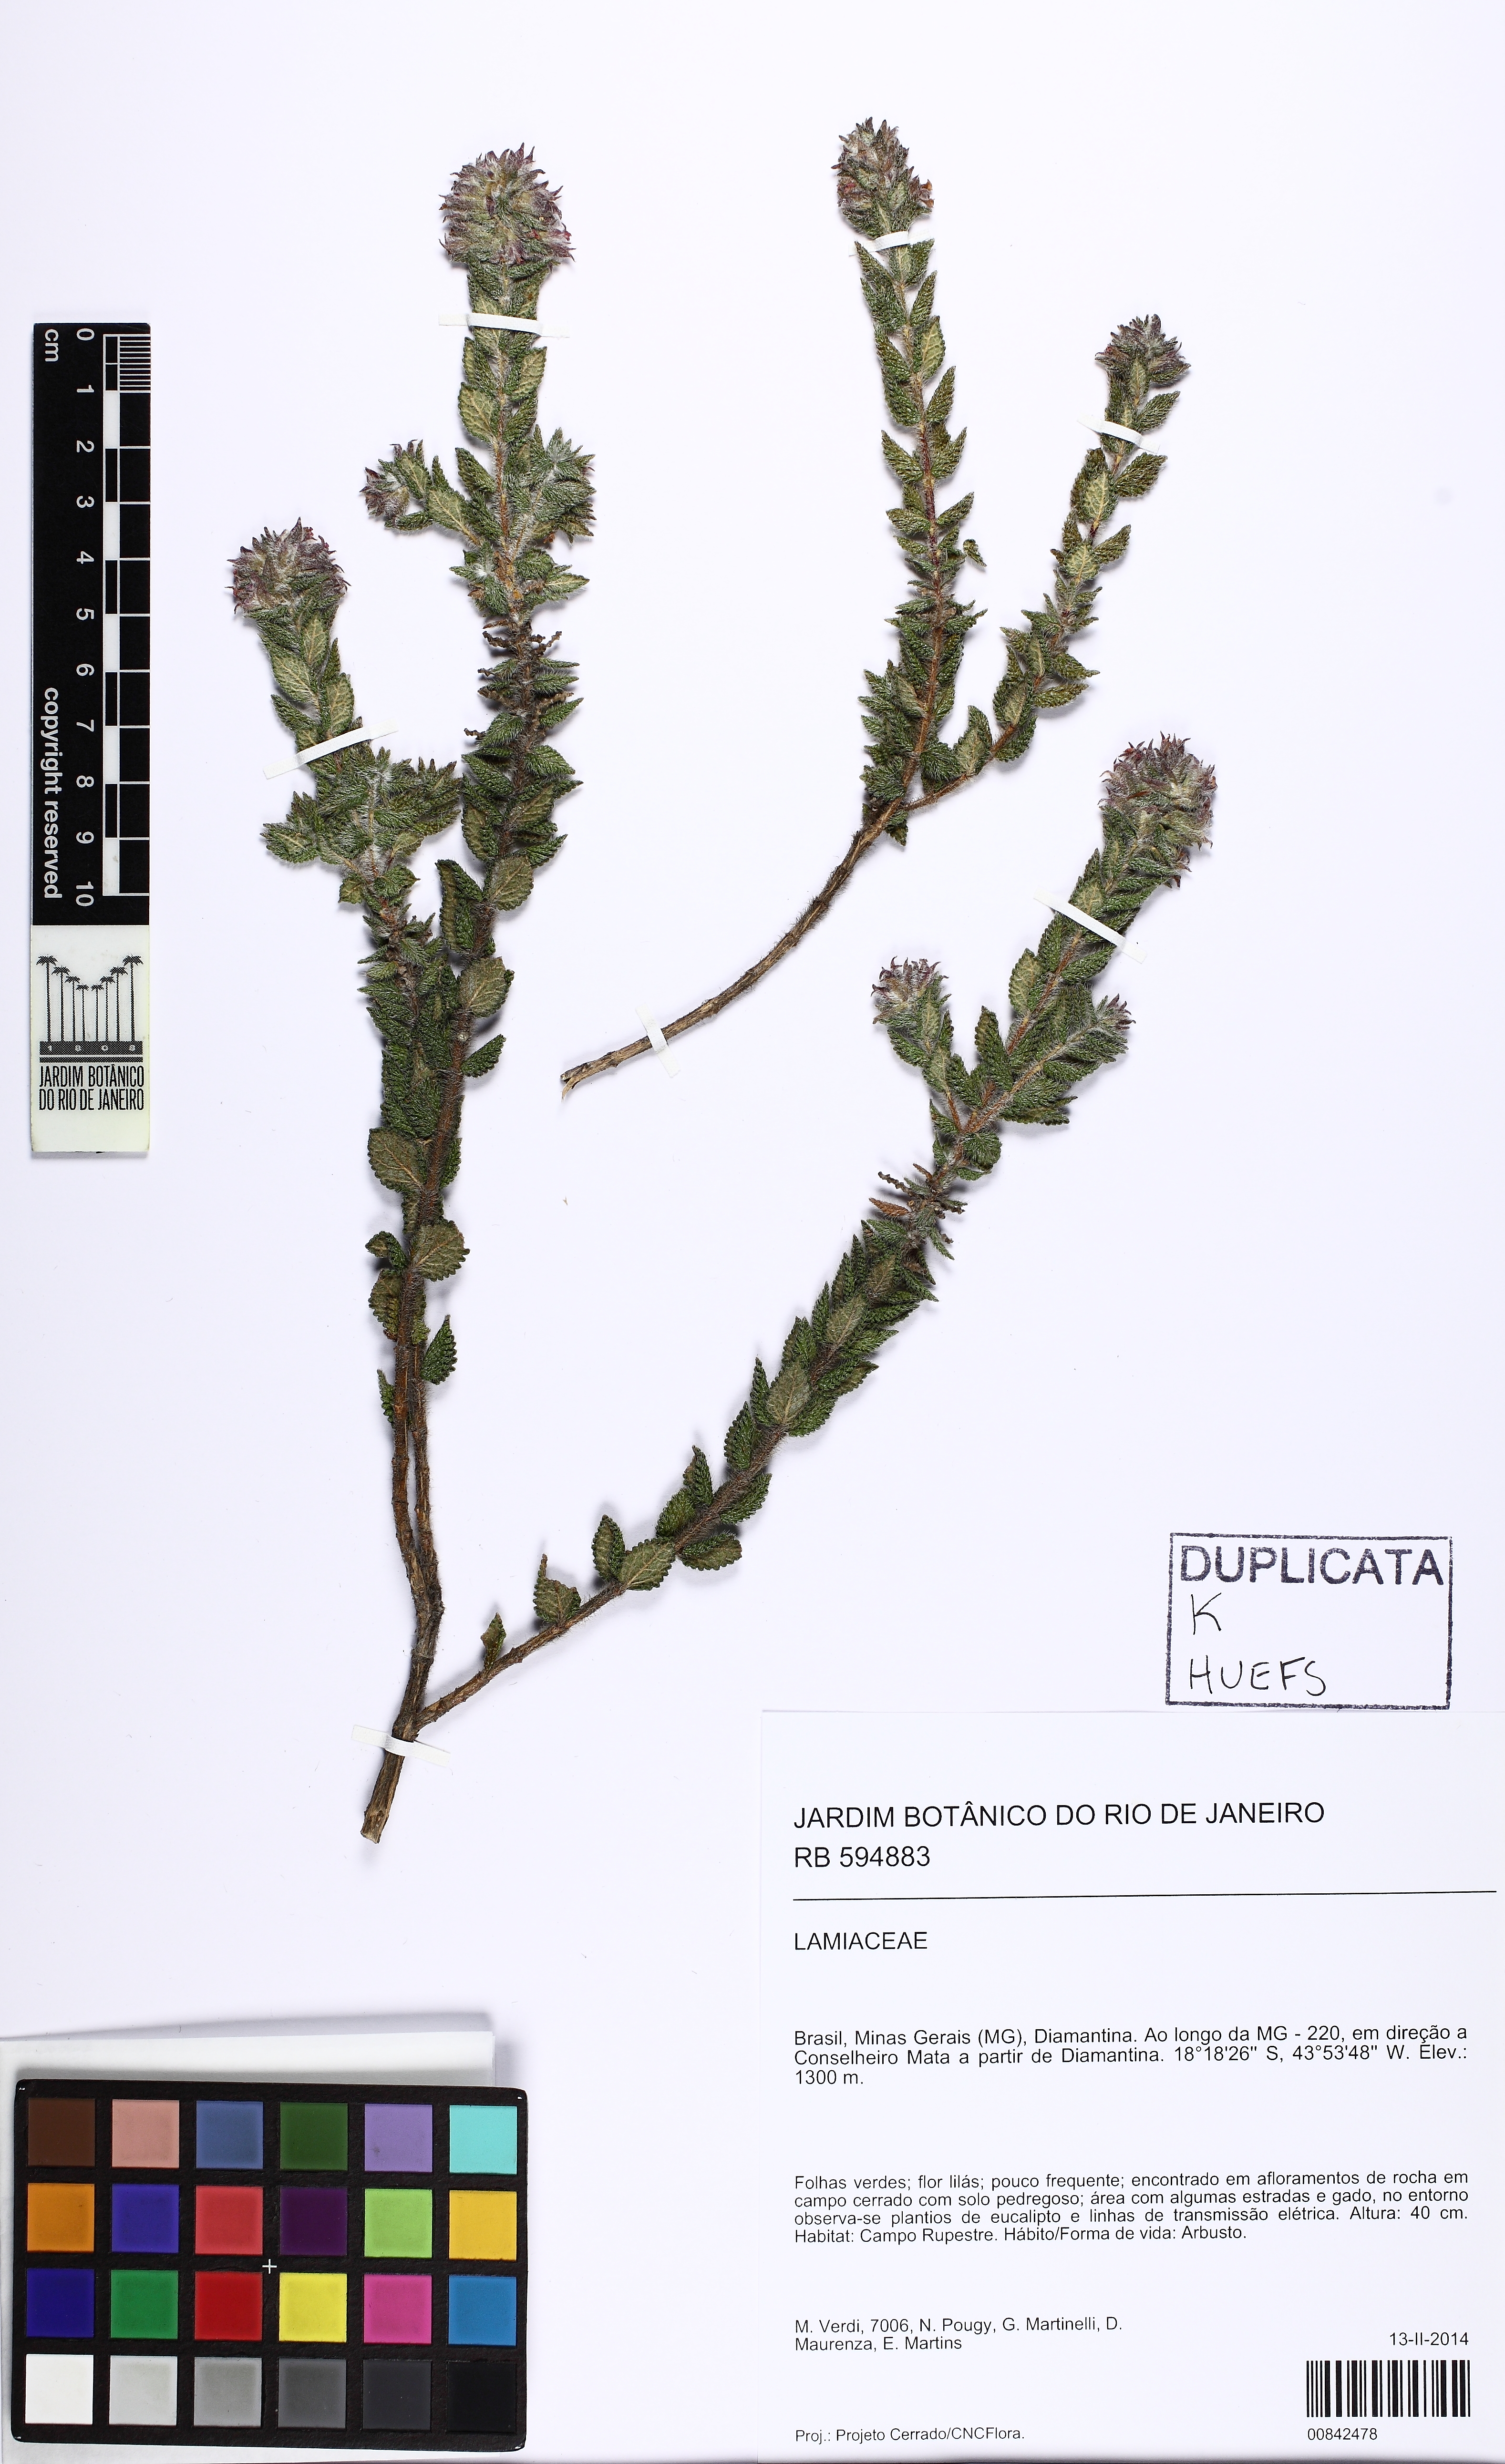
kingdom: Plantae
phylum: Tracheophyta
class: Magnoliopsida
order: Lamiales
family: Lamiaceae
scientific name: Lamiaceae
